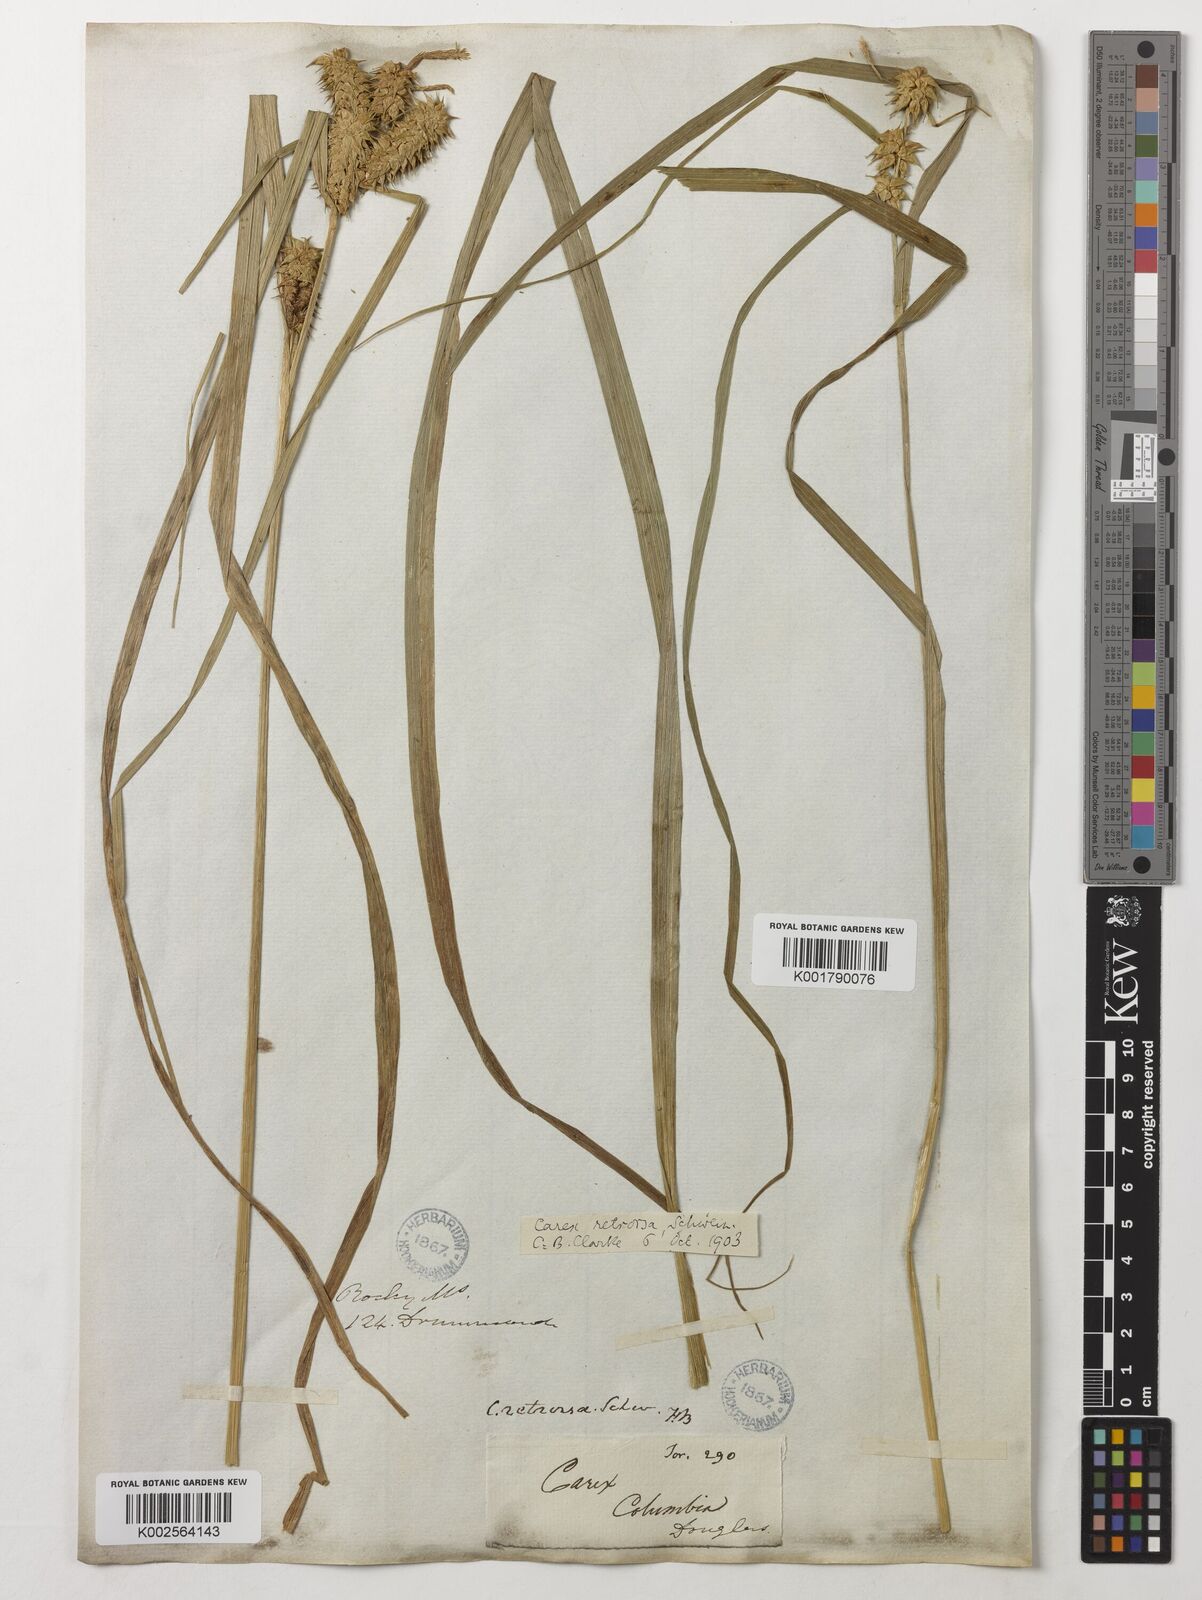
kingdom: Plantae
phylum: Tracheophyta
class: Liliopsida
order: Poales
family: Cyperaceae
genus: Carex
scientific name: Carex retrorsa
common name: Knot-sheath sedge
